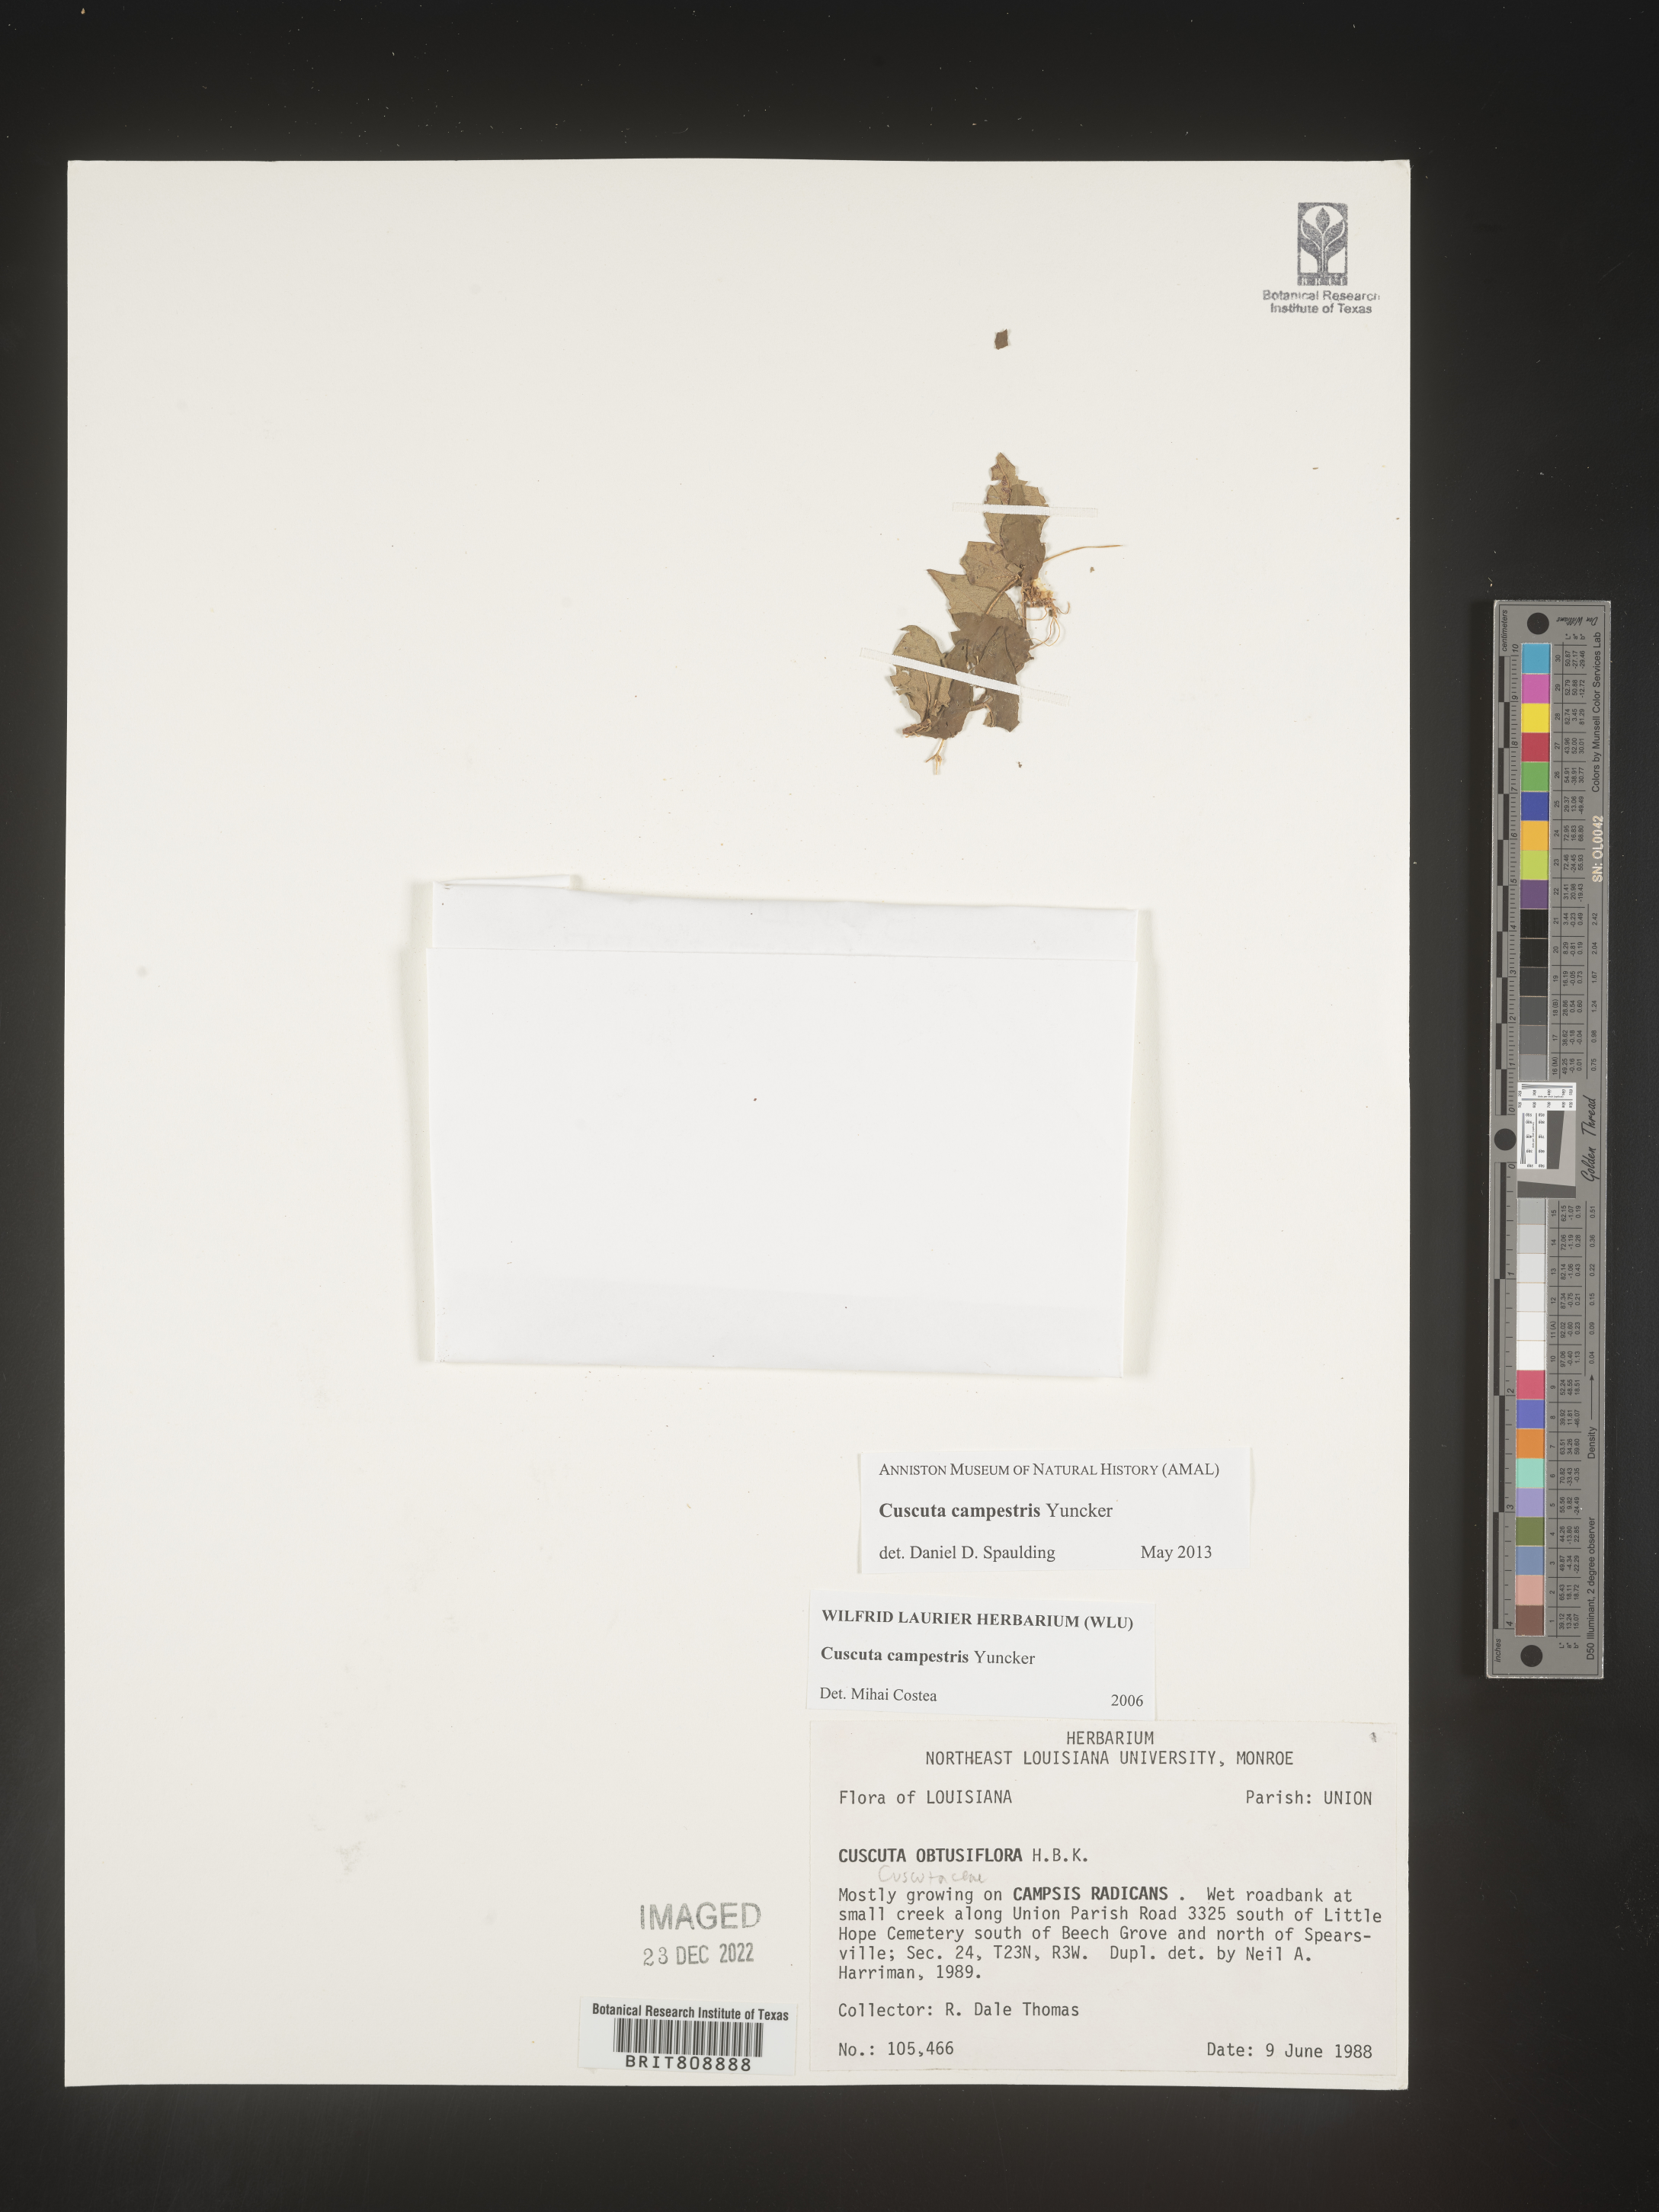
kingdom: Plantae
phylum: Tracheophyta
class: Magnoliopsida
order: Solanales
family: Convolvulaceae
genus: Cuscuta
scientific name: Cuscuta campestris
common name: Yellow dodder
